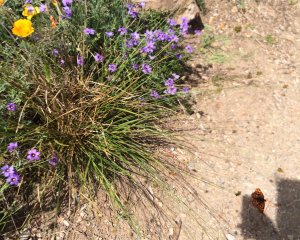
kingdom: Animalia
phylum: Arthropoda
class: Insecta
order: Lepidoptera
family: Nymphalidae
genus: Chlosyne
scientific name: Chlosyne palla
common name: Northern Checkerspot
